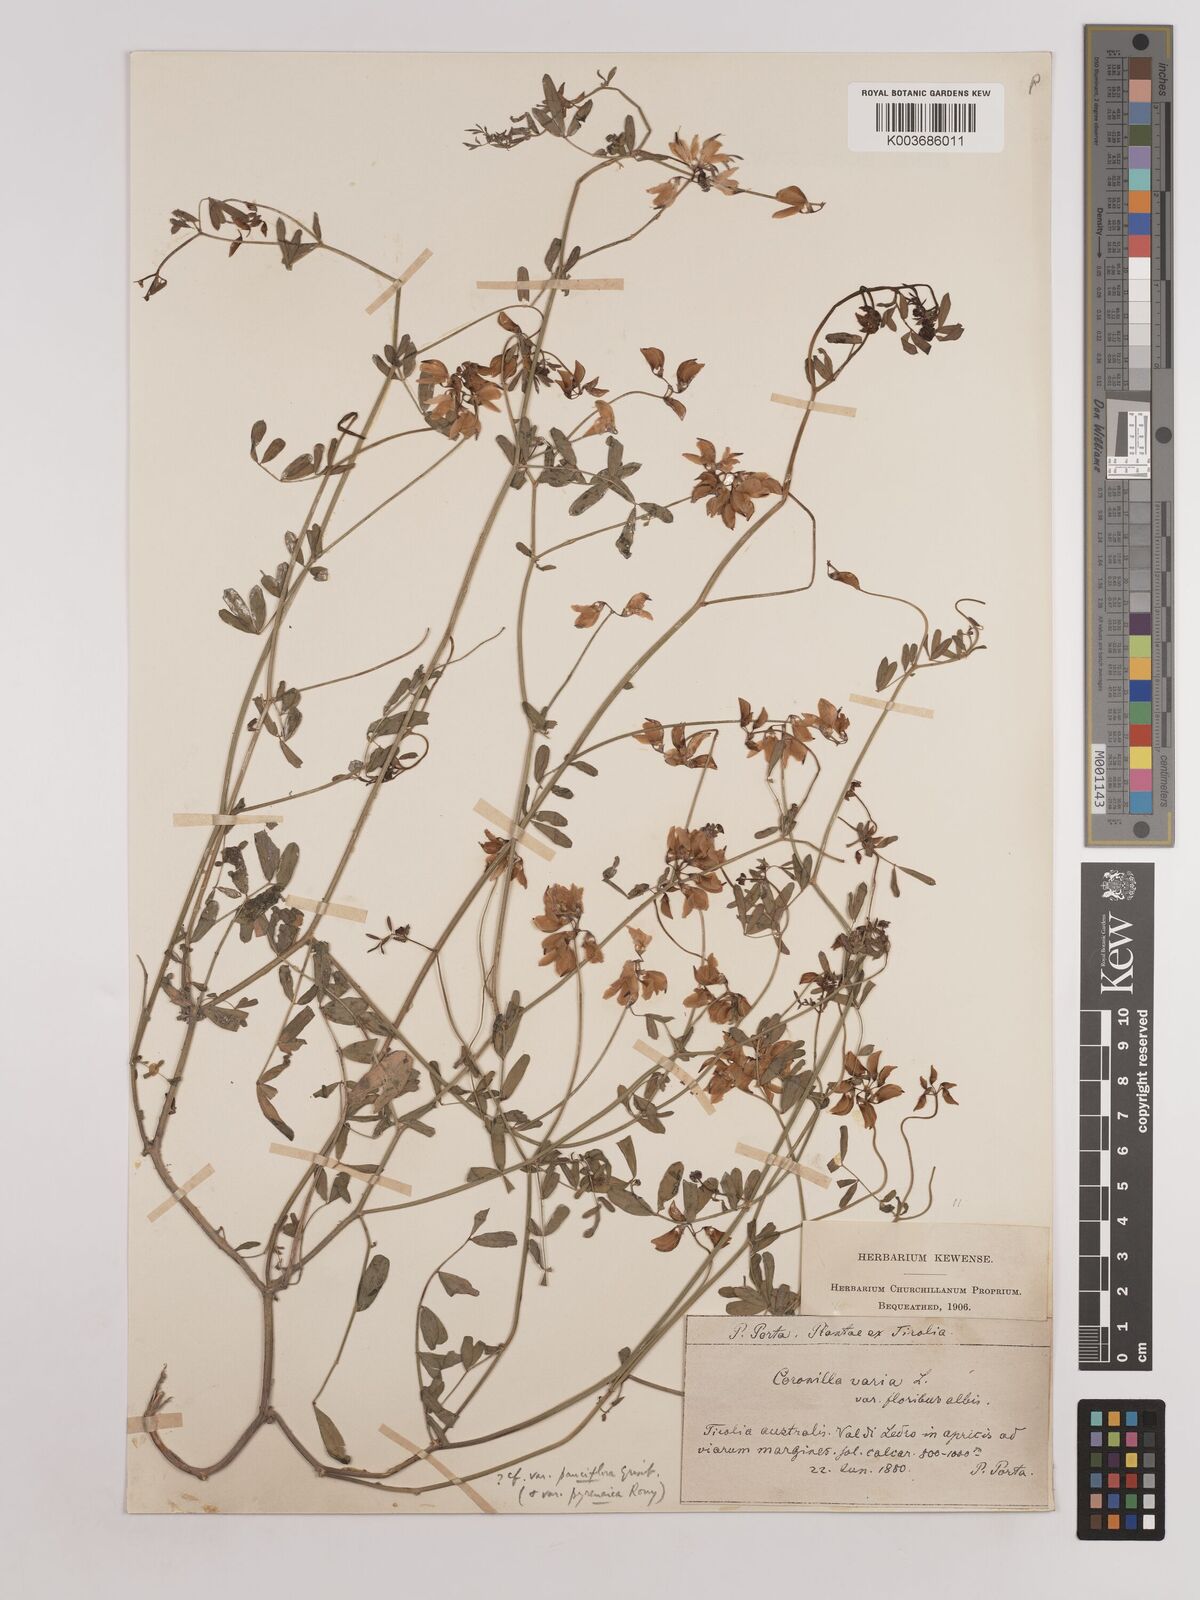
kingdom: Plantae
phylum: Tracheophyta
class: Magnoliopsida
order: Fabales
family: Fabaceae
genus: Coronilla
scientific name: Coronilla varia
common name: Crownvetch
